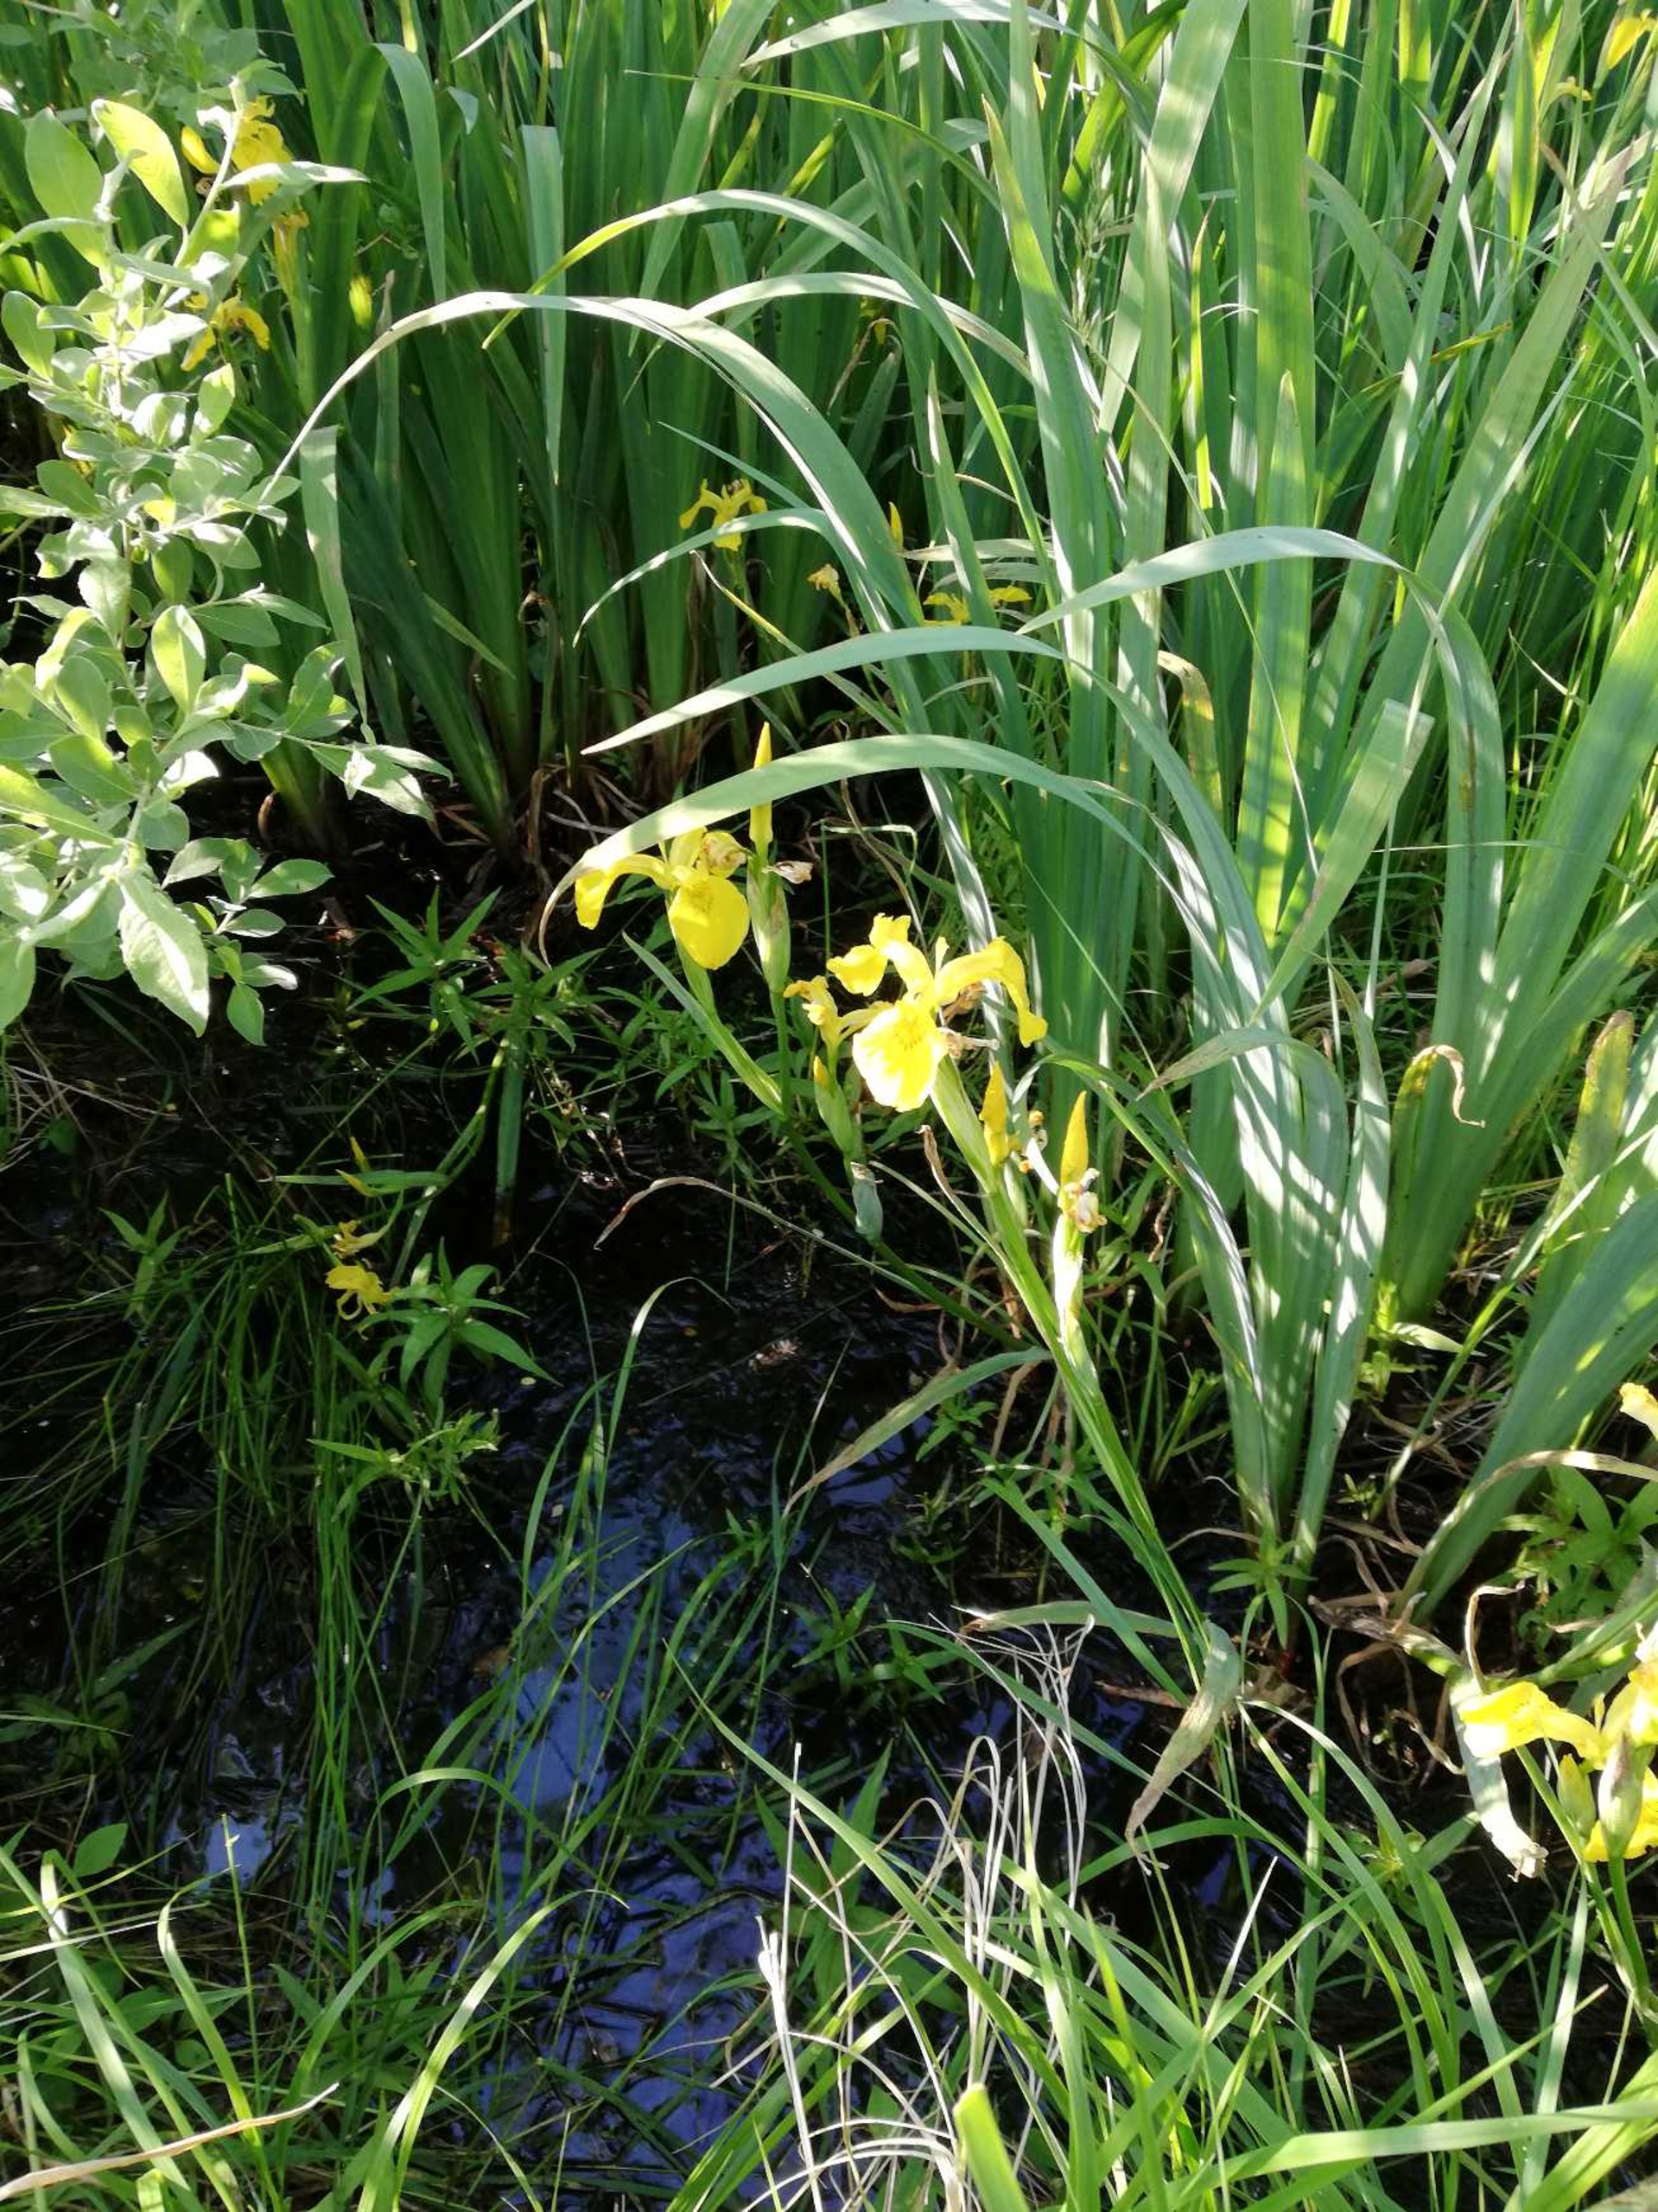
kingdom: Plantae
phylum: Tracheophyta
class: Liliopsida
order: Asparagales
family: Iridaceae
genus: Iris
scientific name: Iris pseudacorus
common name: Gul iris
